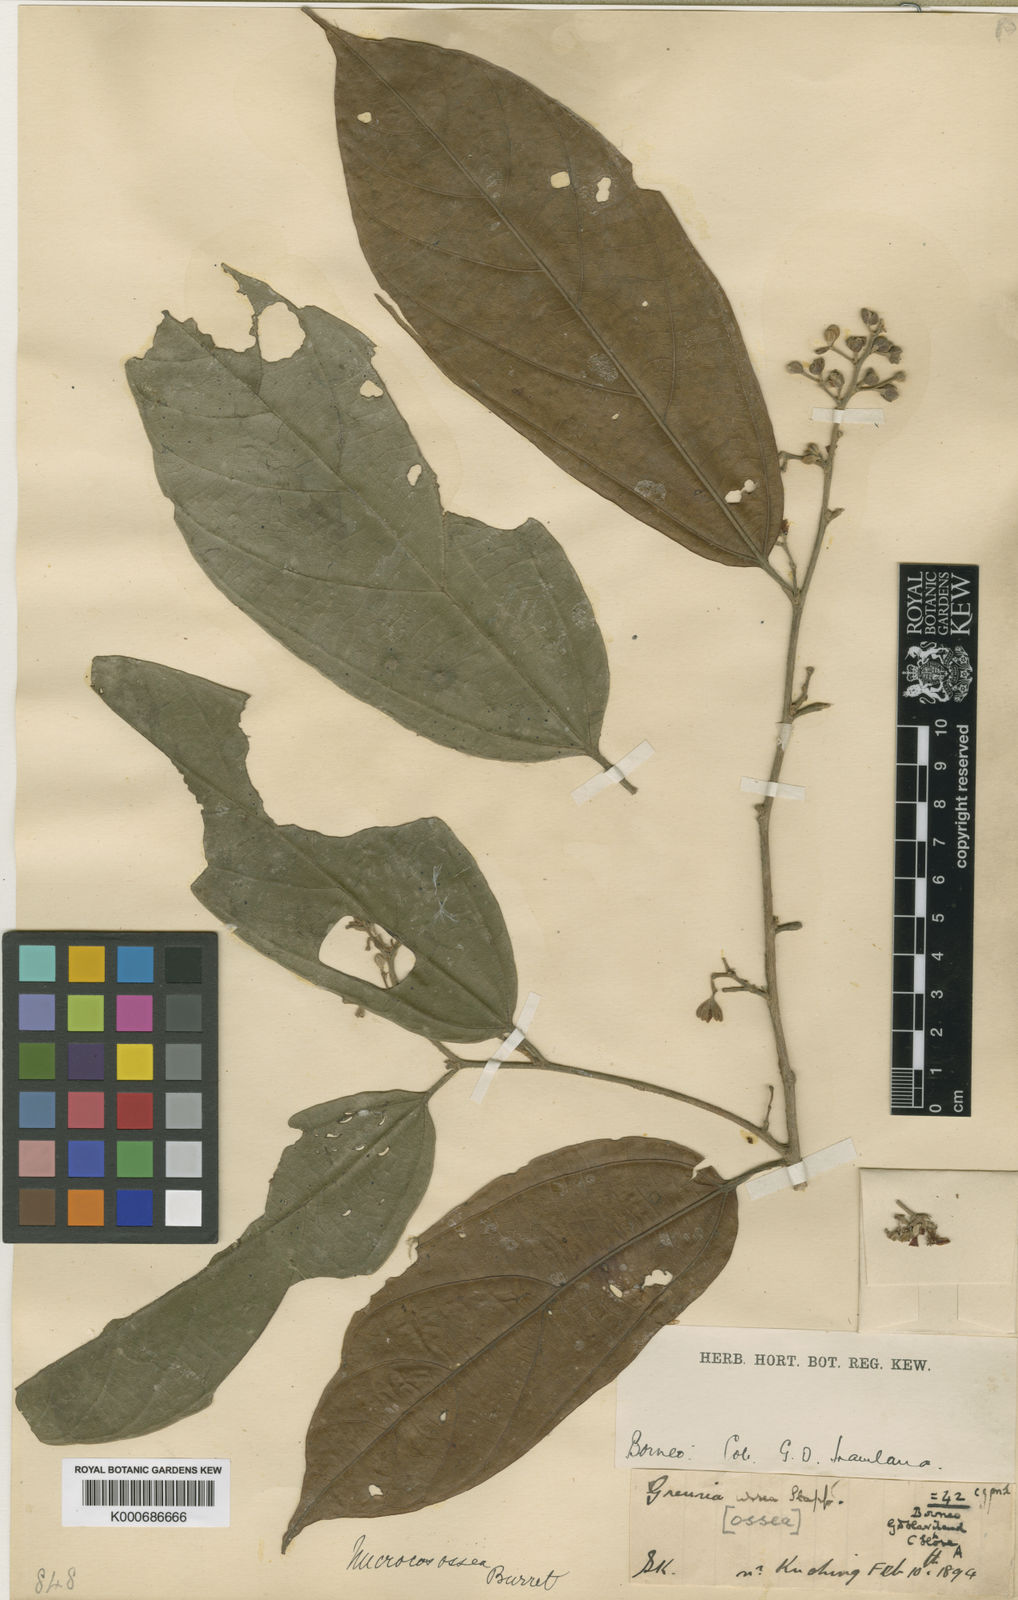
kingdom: Plantae
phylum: Tracheophyta
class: Magnoliopsida
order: Malvales
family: Malvaceae
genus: Microcos
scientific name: Microcos ossea
